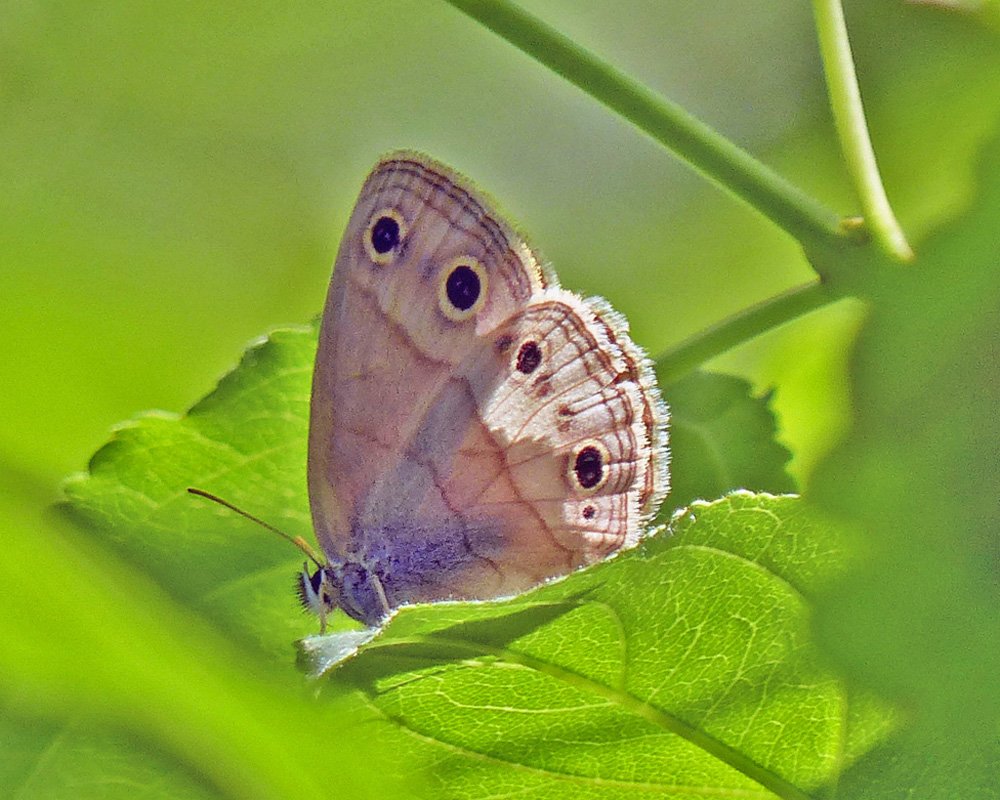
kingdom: Animalia
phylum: Arthropoda
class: Insecta
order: Lepidoptera
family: Nymphalidae
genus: Euptychia
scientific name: Euptychia cymela
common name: Little Wood Satyr
